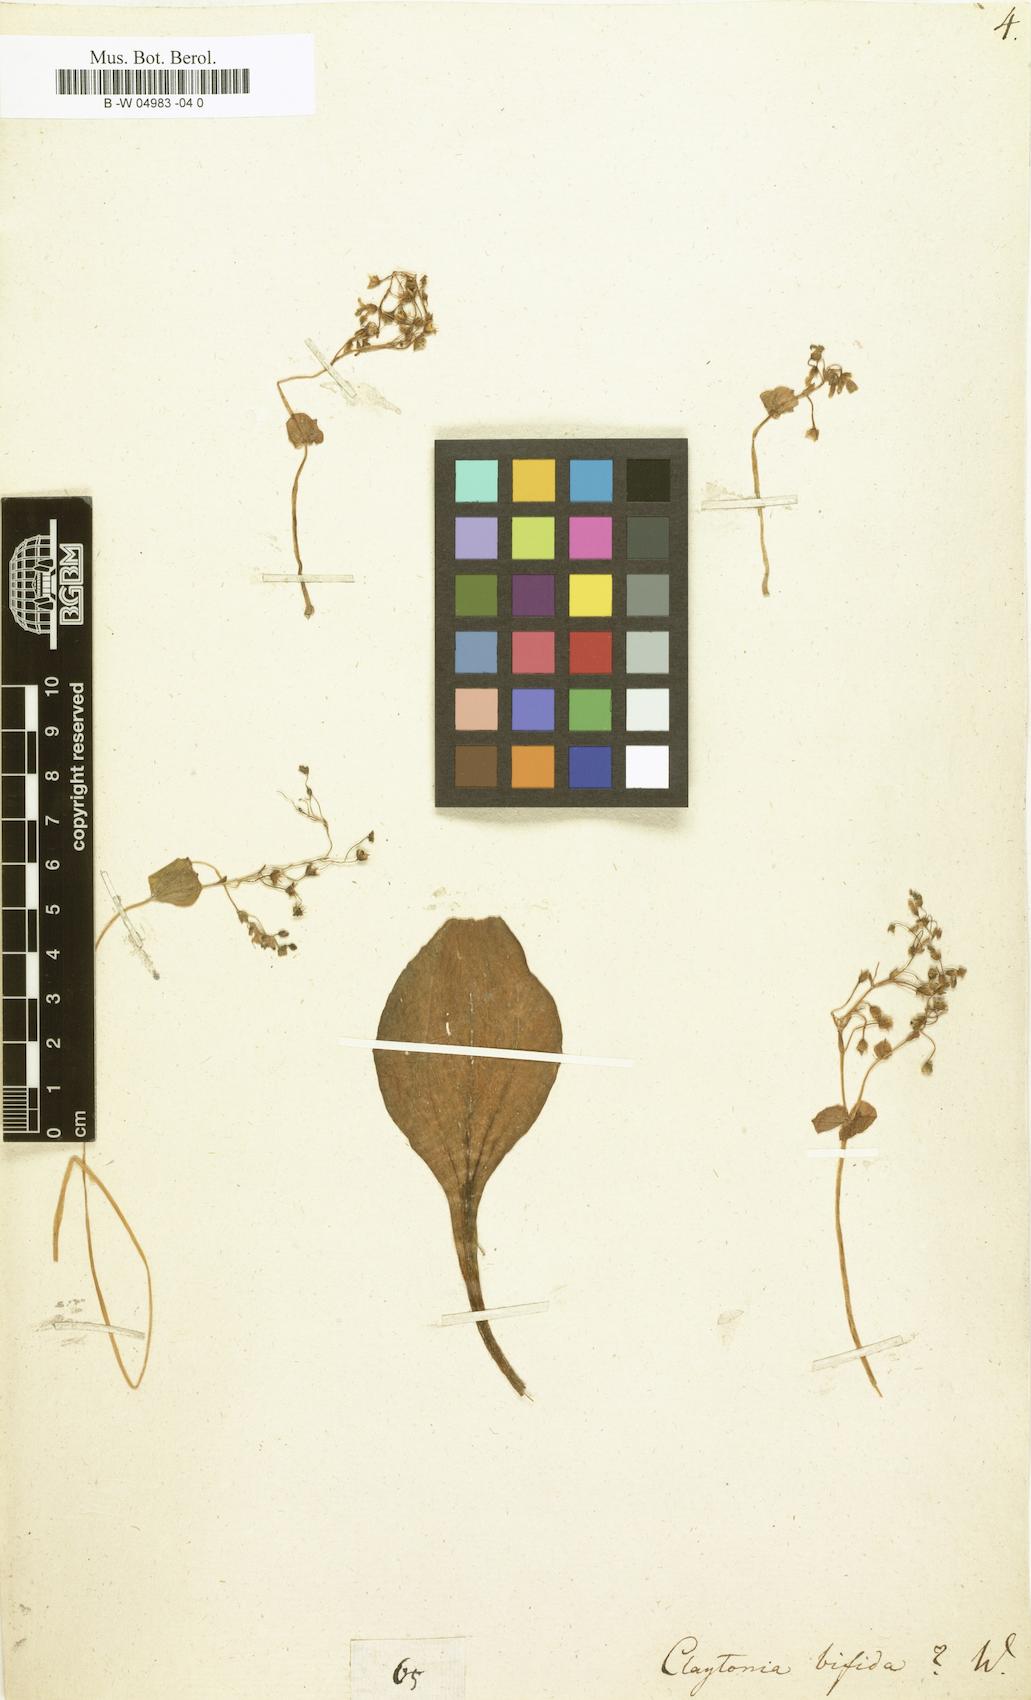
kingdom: Plantae
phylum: Tracheophyta
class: Magnoliopsida
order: Caryophyllales
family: Montiaceae
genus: Claytonia
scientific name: Claytonia sibirica
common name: Pink purslane
